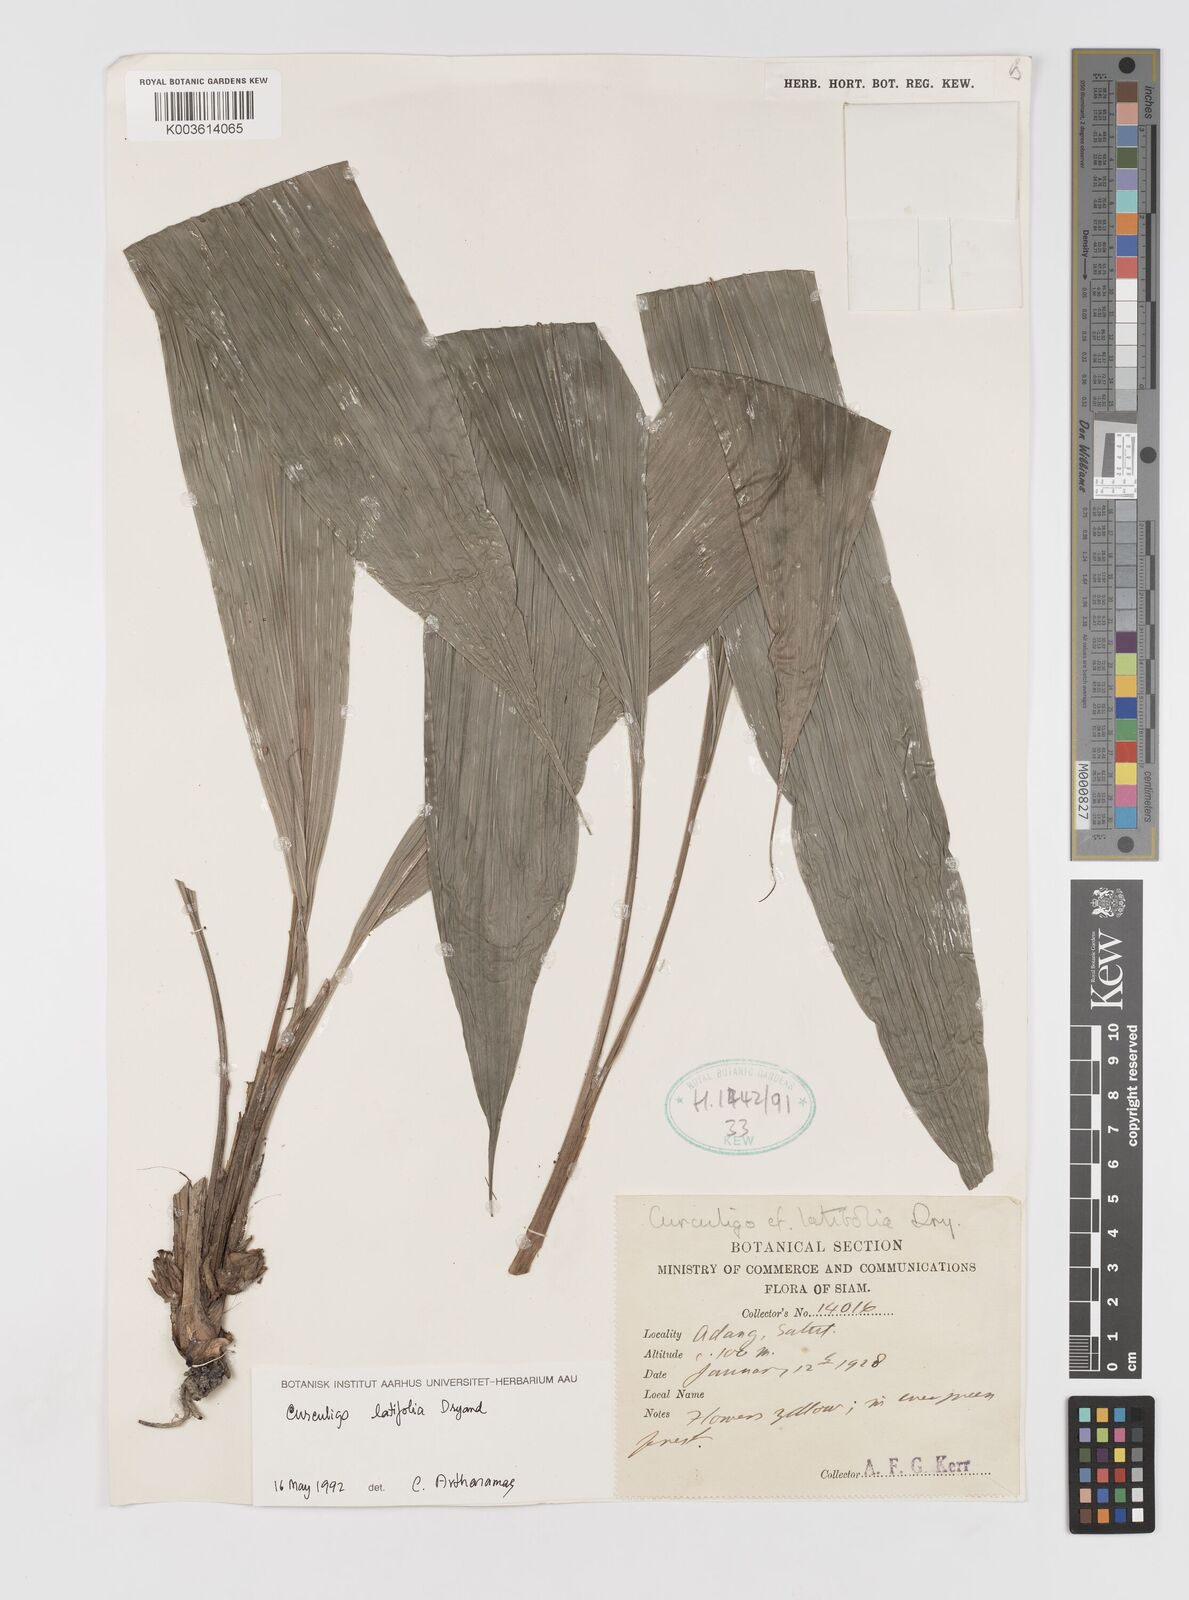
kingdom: Plantae
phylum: Tracheophyta
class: Liliopsida
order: Asparagales
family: Hypoxidaceae
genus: Curculigo
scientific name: Curculigo latifolia
